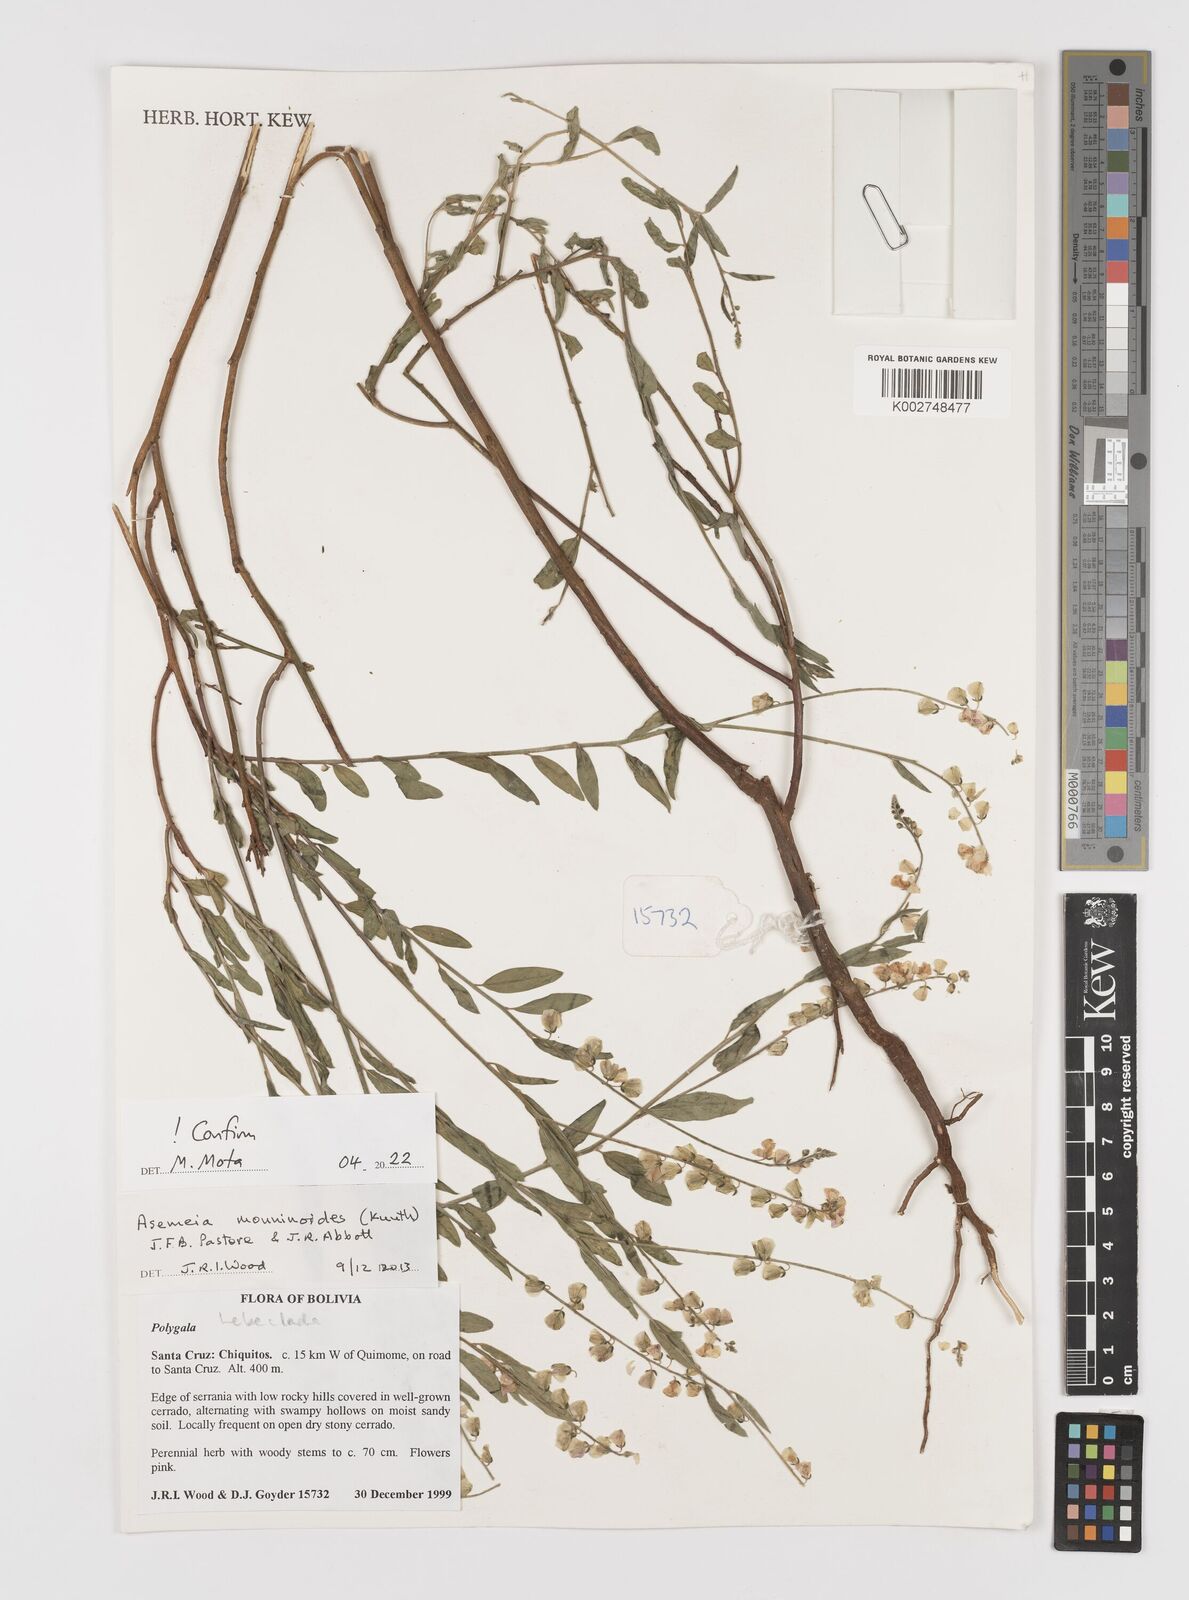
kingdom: Plantae
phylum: Tracheophyta
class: Magnoliopsida
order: Fabales
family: Polygalaceae
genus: Asemeia
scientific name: Asemeia monninoides
